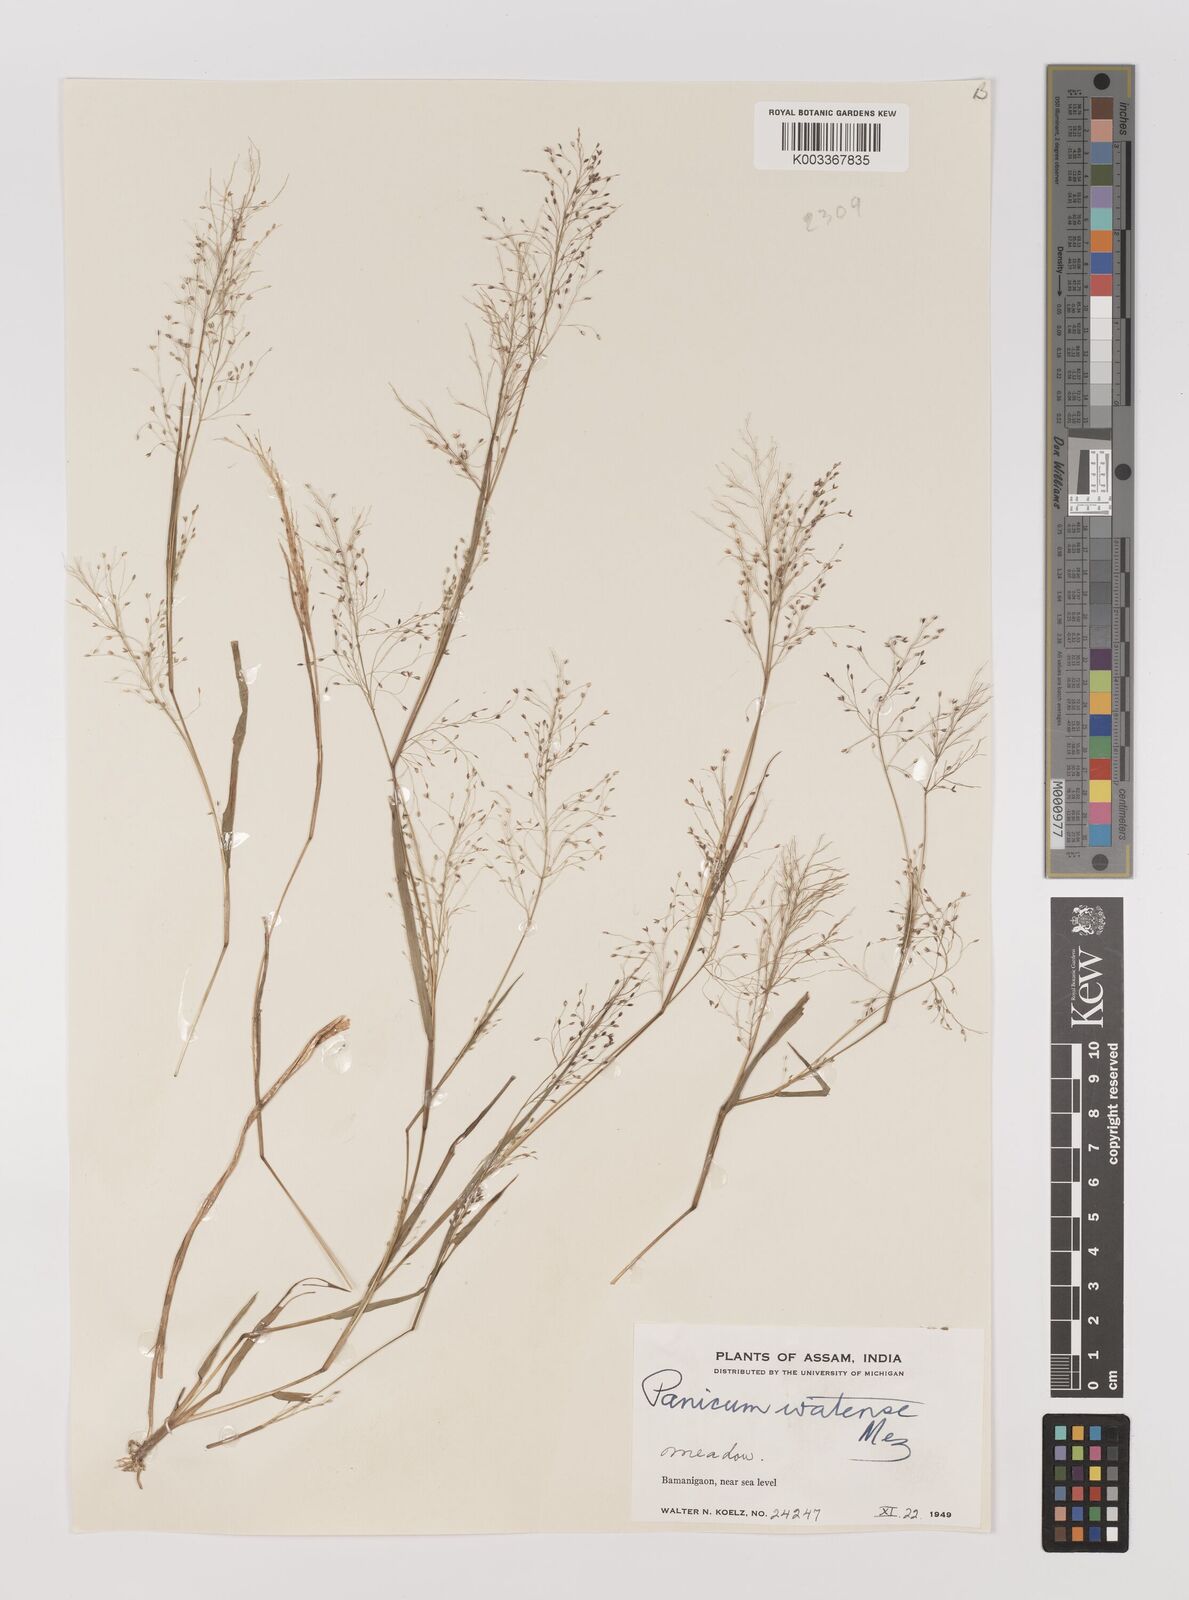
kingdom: Plantae
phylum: Tracheophyta
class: Liliopsida
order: Poales
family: Poaceae
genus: Panicum
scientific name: Panicum humile
